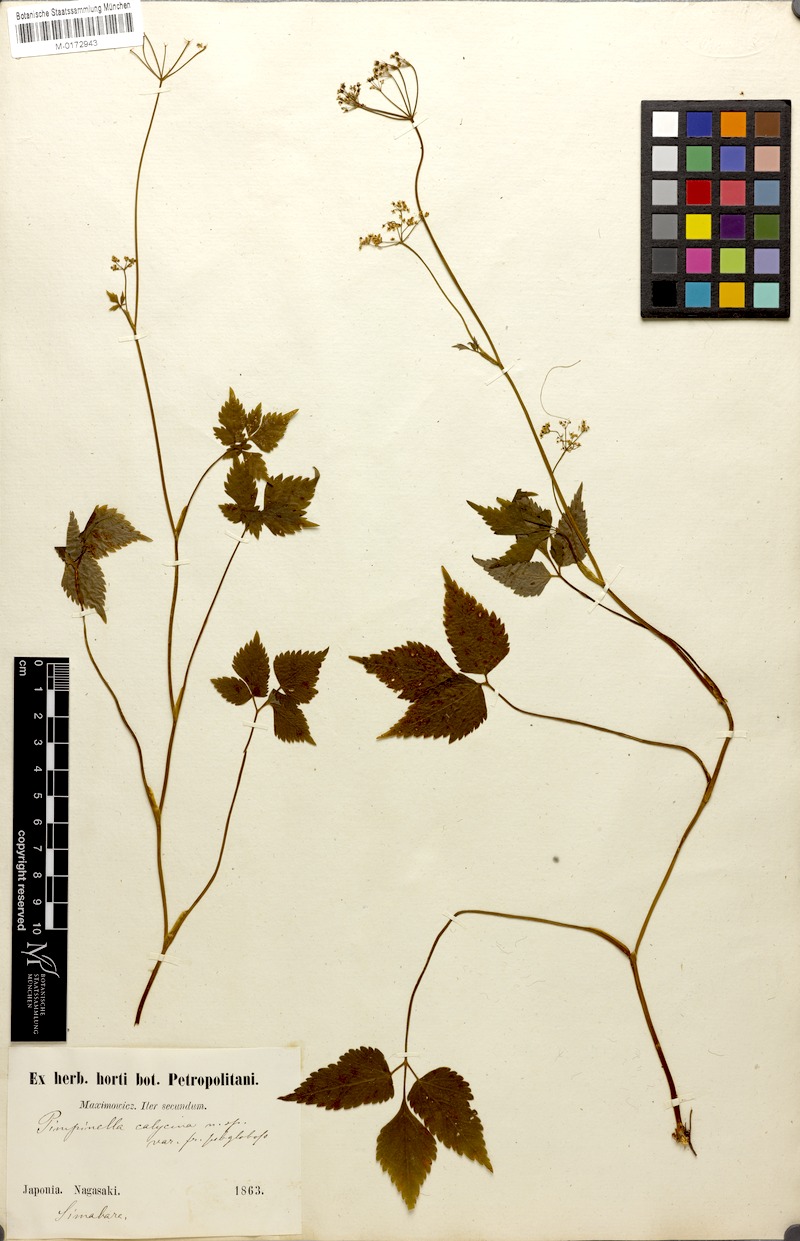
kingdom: Plantae
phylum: Tracheophyta
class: Magnoliopsida
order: Apiales
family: Apiaceae
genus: Spuriopimpinella
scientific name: Spuriopimpinella calycina
